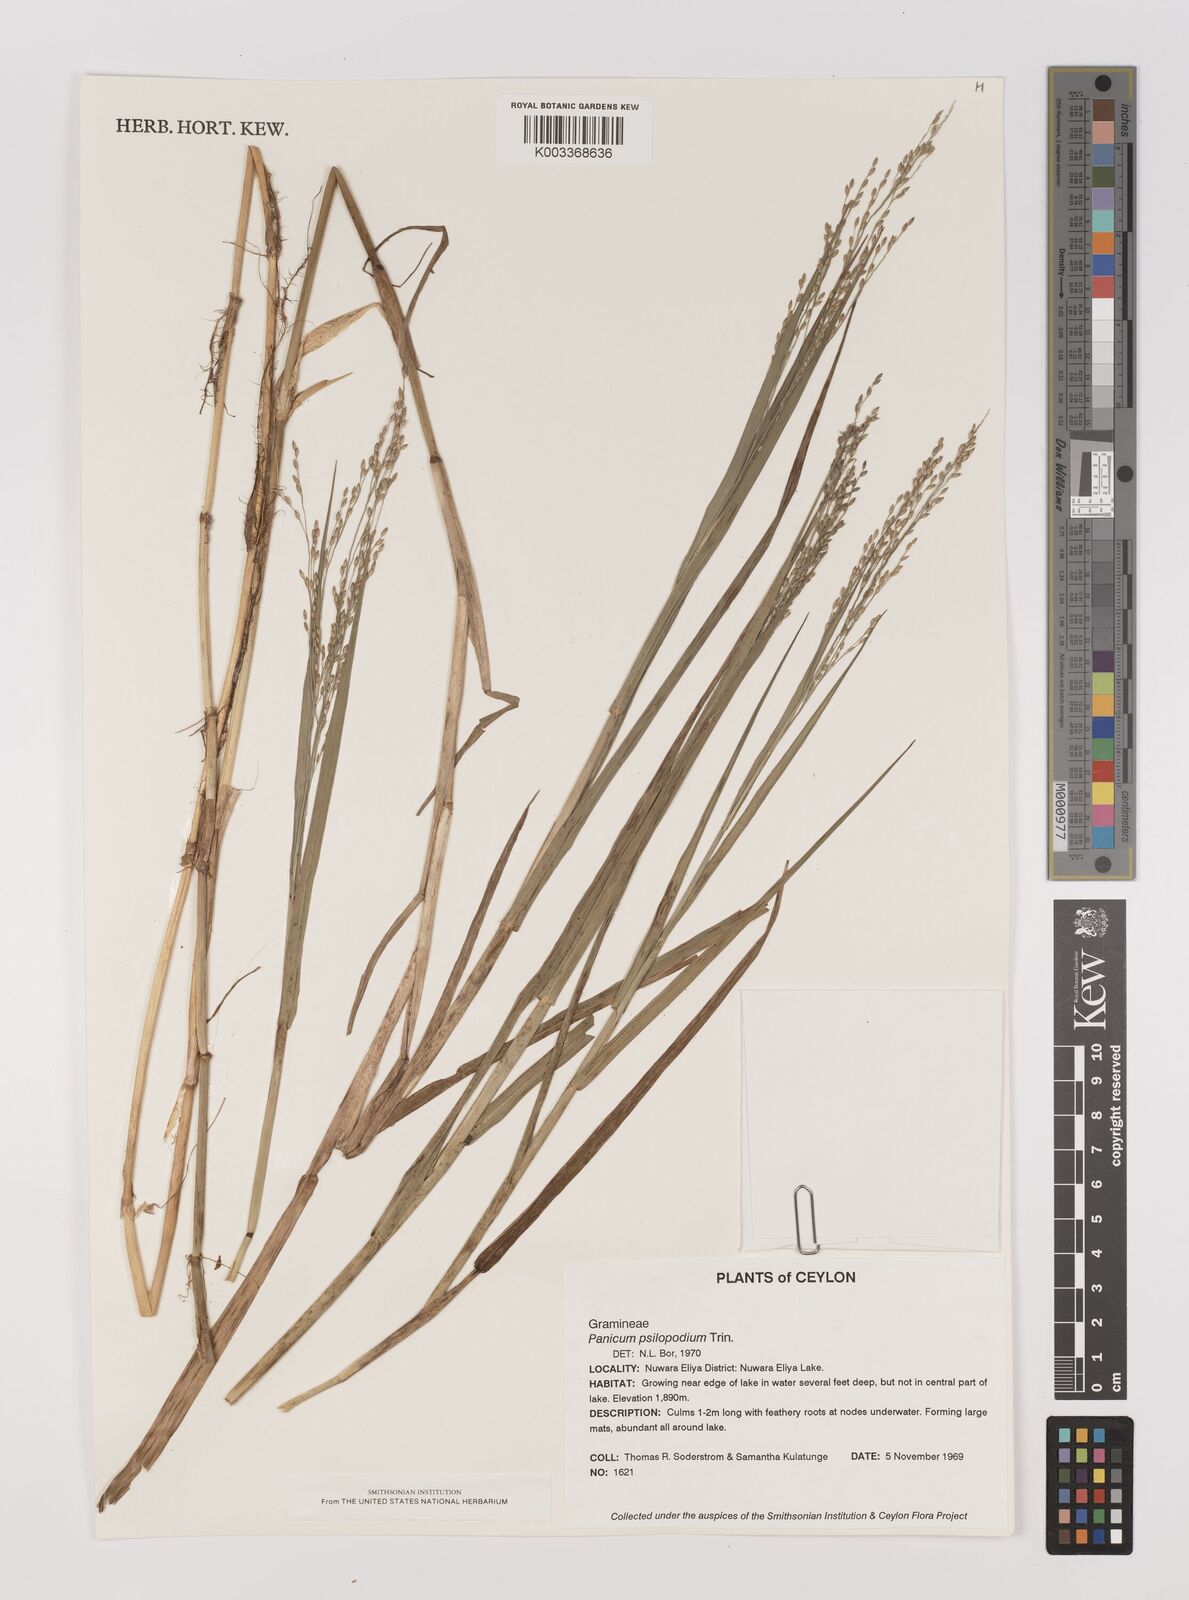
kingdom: Plantae
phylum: Tracheophyta
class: Liliopsida
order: Poales
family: Poaceae
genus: Panicum
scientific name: Panicum sumatrense
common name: Little millet
